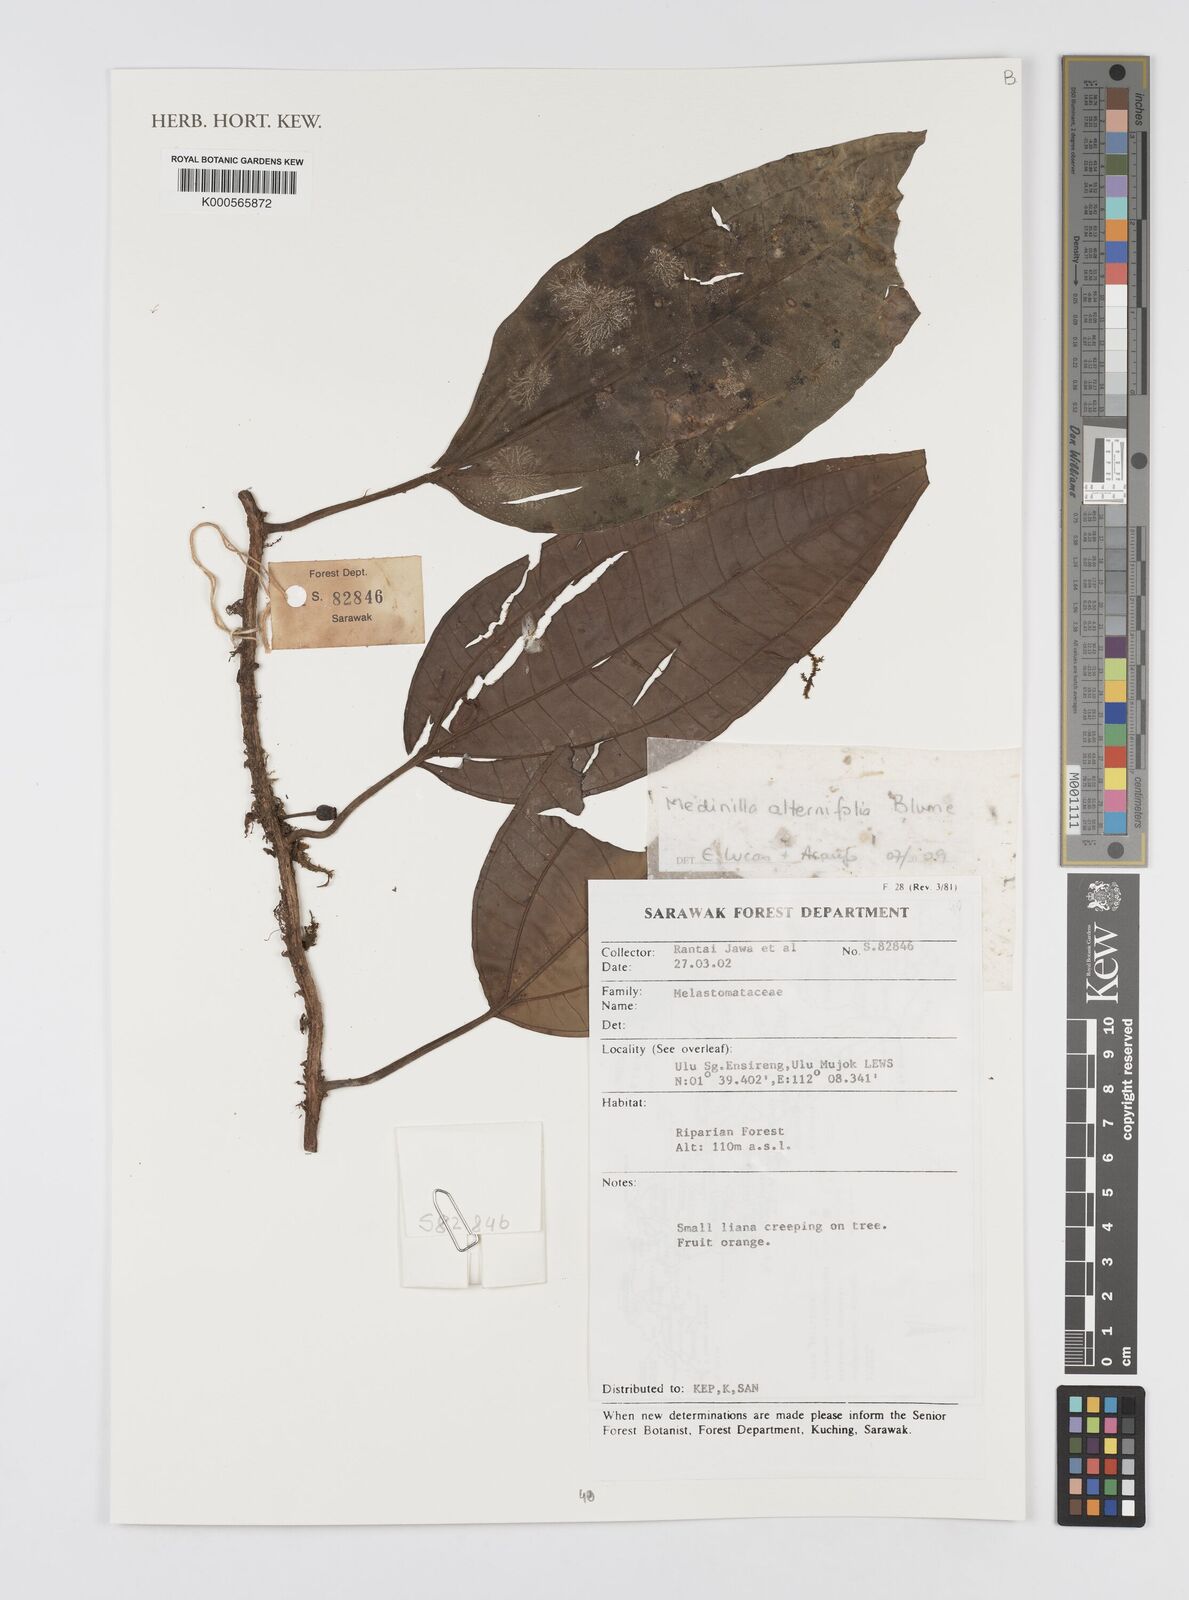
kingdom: Plantae
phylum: Tracheophyta
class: Magnoliopsida
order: Myrtales
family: Melastomataceae
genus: Heteroblemma
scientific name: Heteroblemma alternifolium
